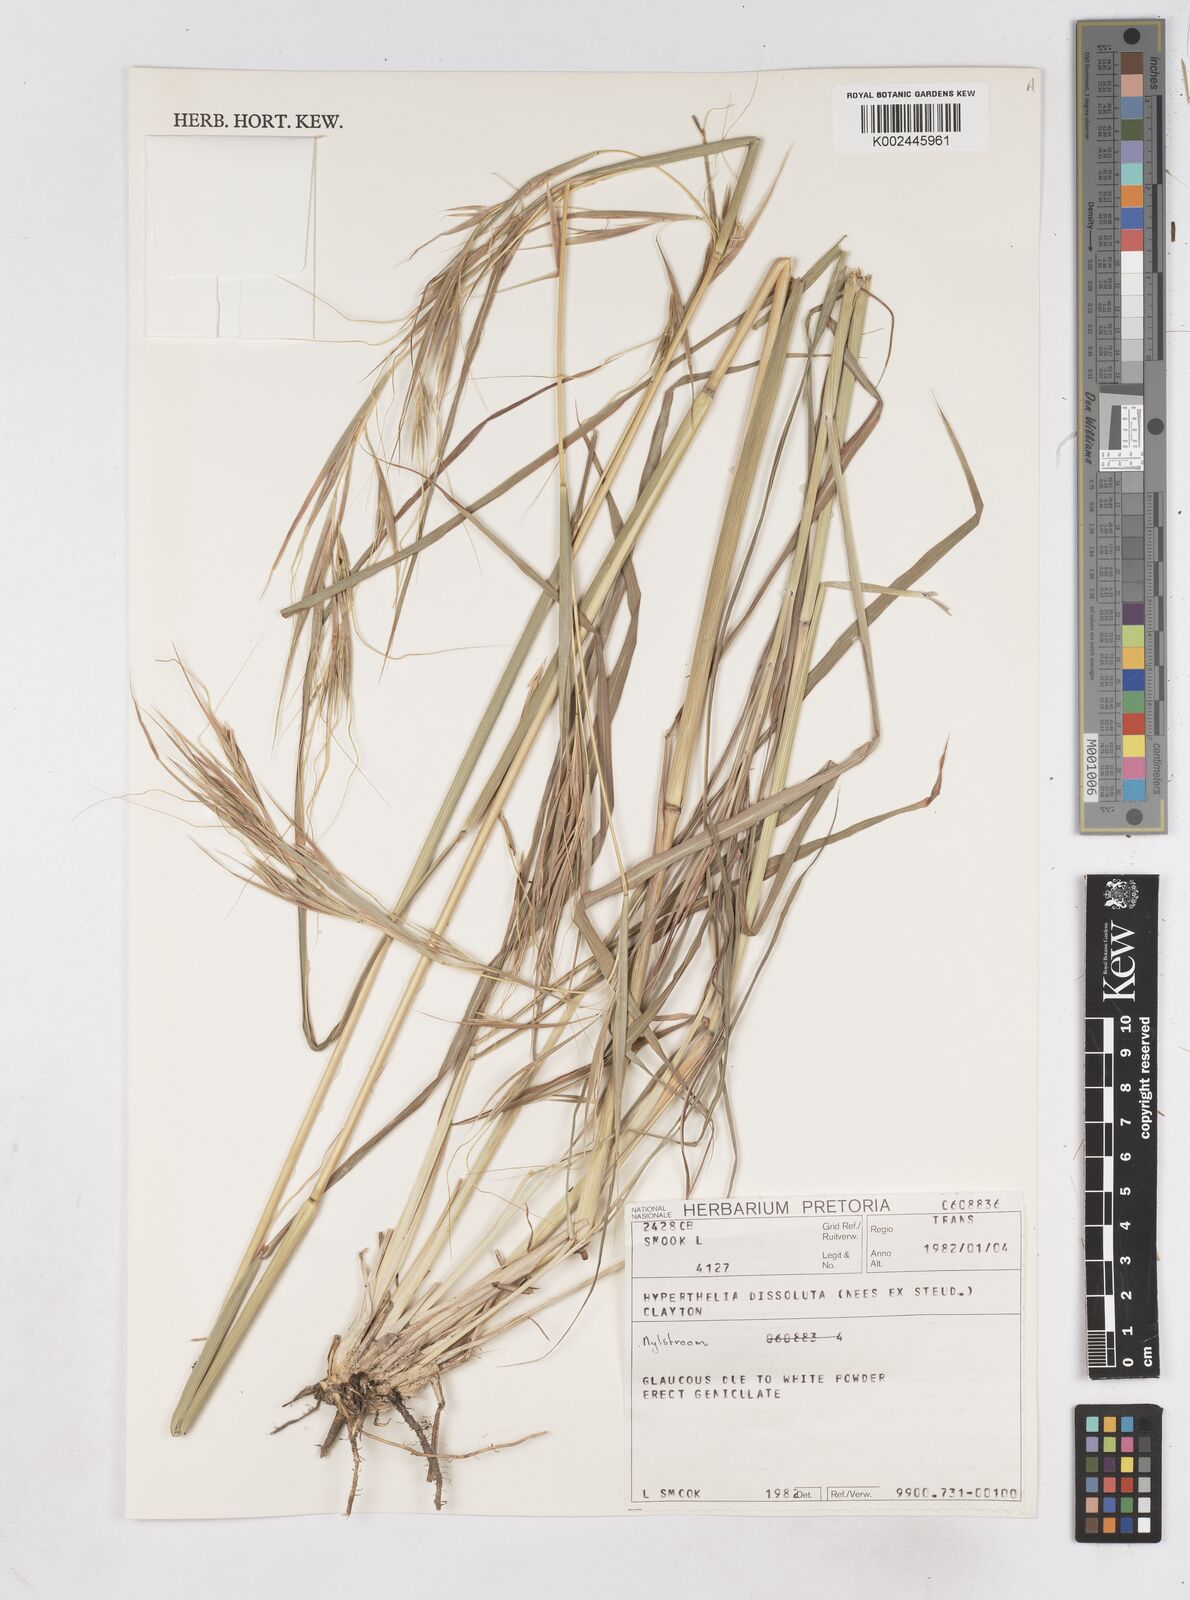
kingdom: Plantae
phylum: Tracheophyta
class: Liliopsida
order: Poales
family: Poaceae
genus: Hyperthelia
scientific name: Hyperthelia dissoluta
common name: Yellow thatching grass
